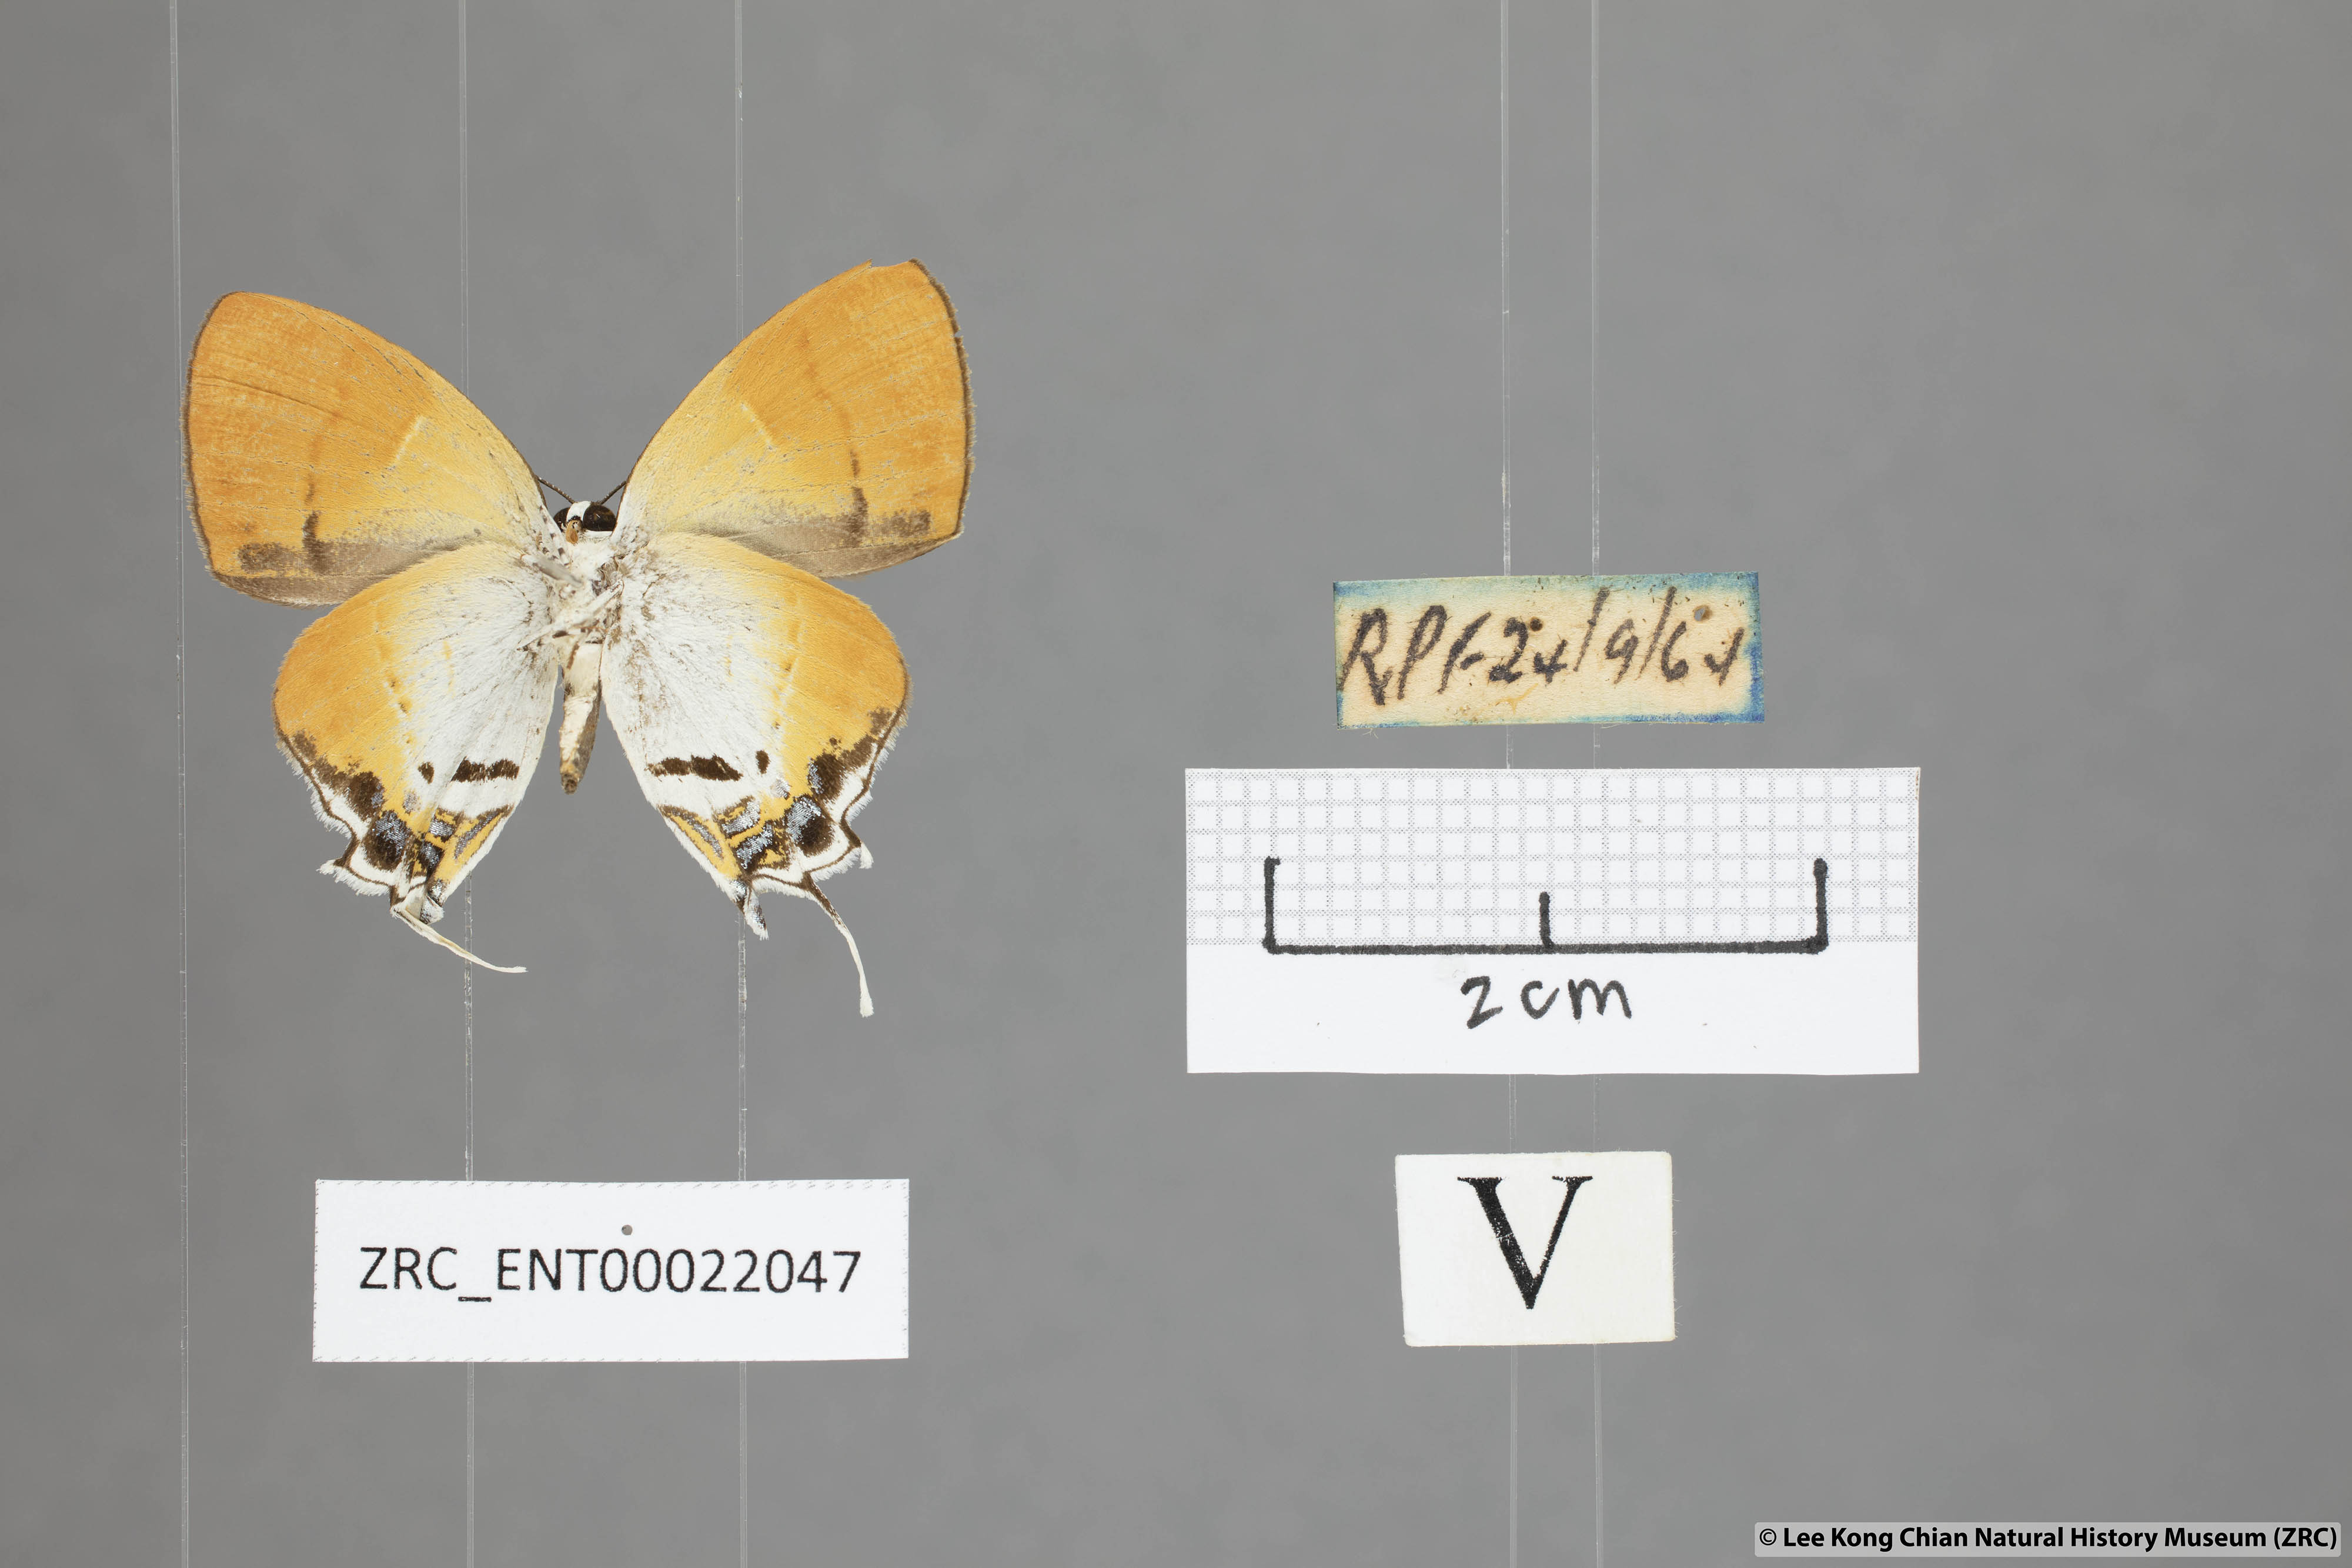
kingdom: Animalia
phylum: Arthropoda
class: Insecta
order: Lepidoptera
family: Lycaenidae
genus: Sithon
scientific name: Sithon nedymond
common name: Plush
